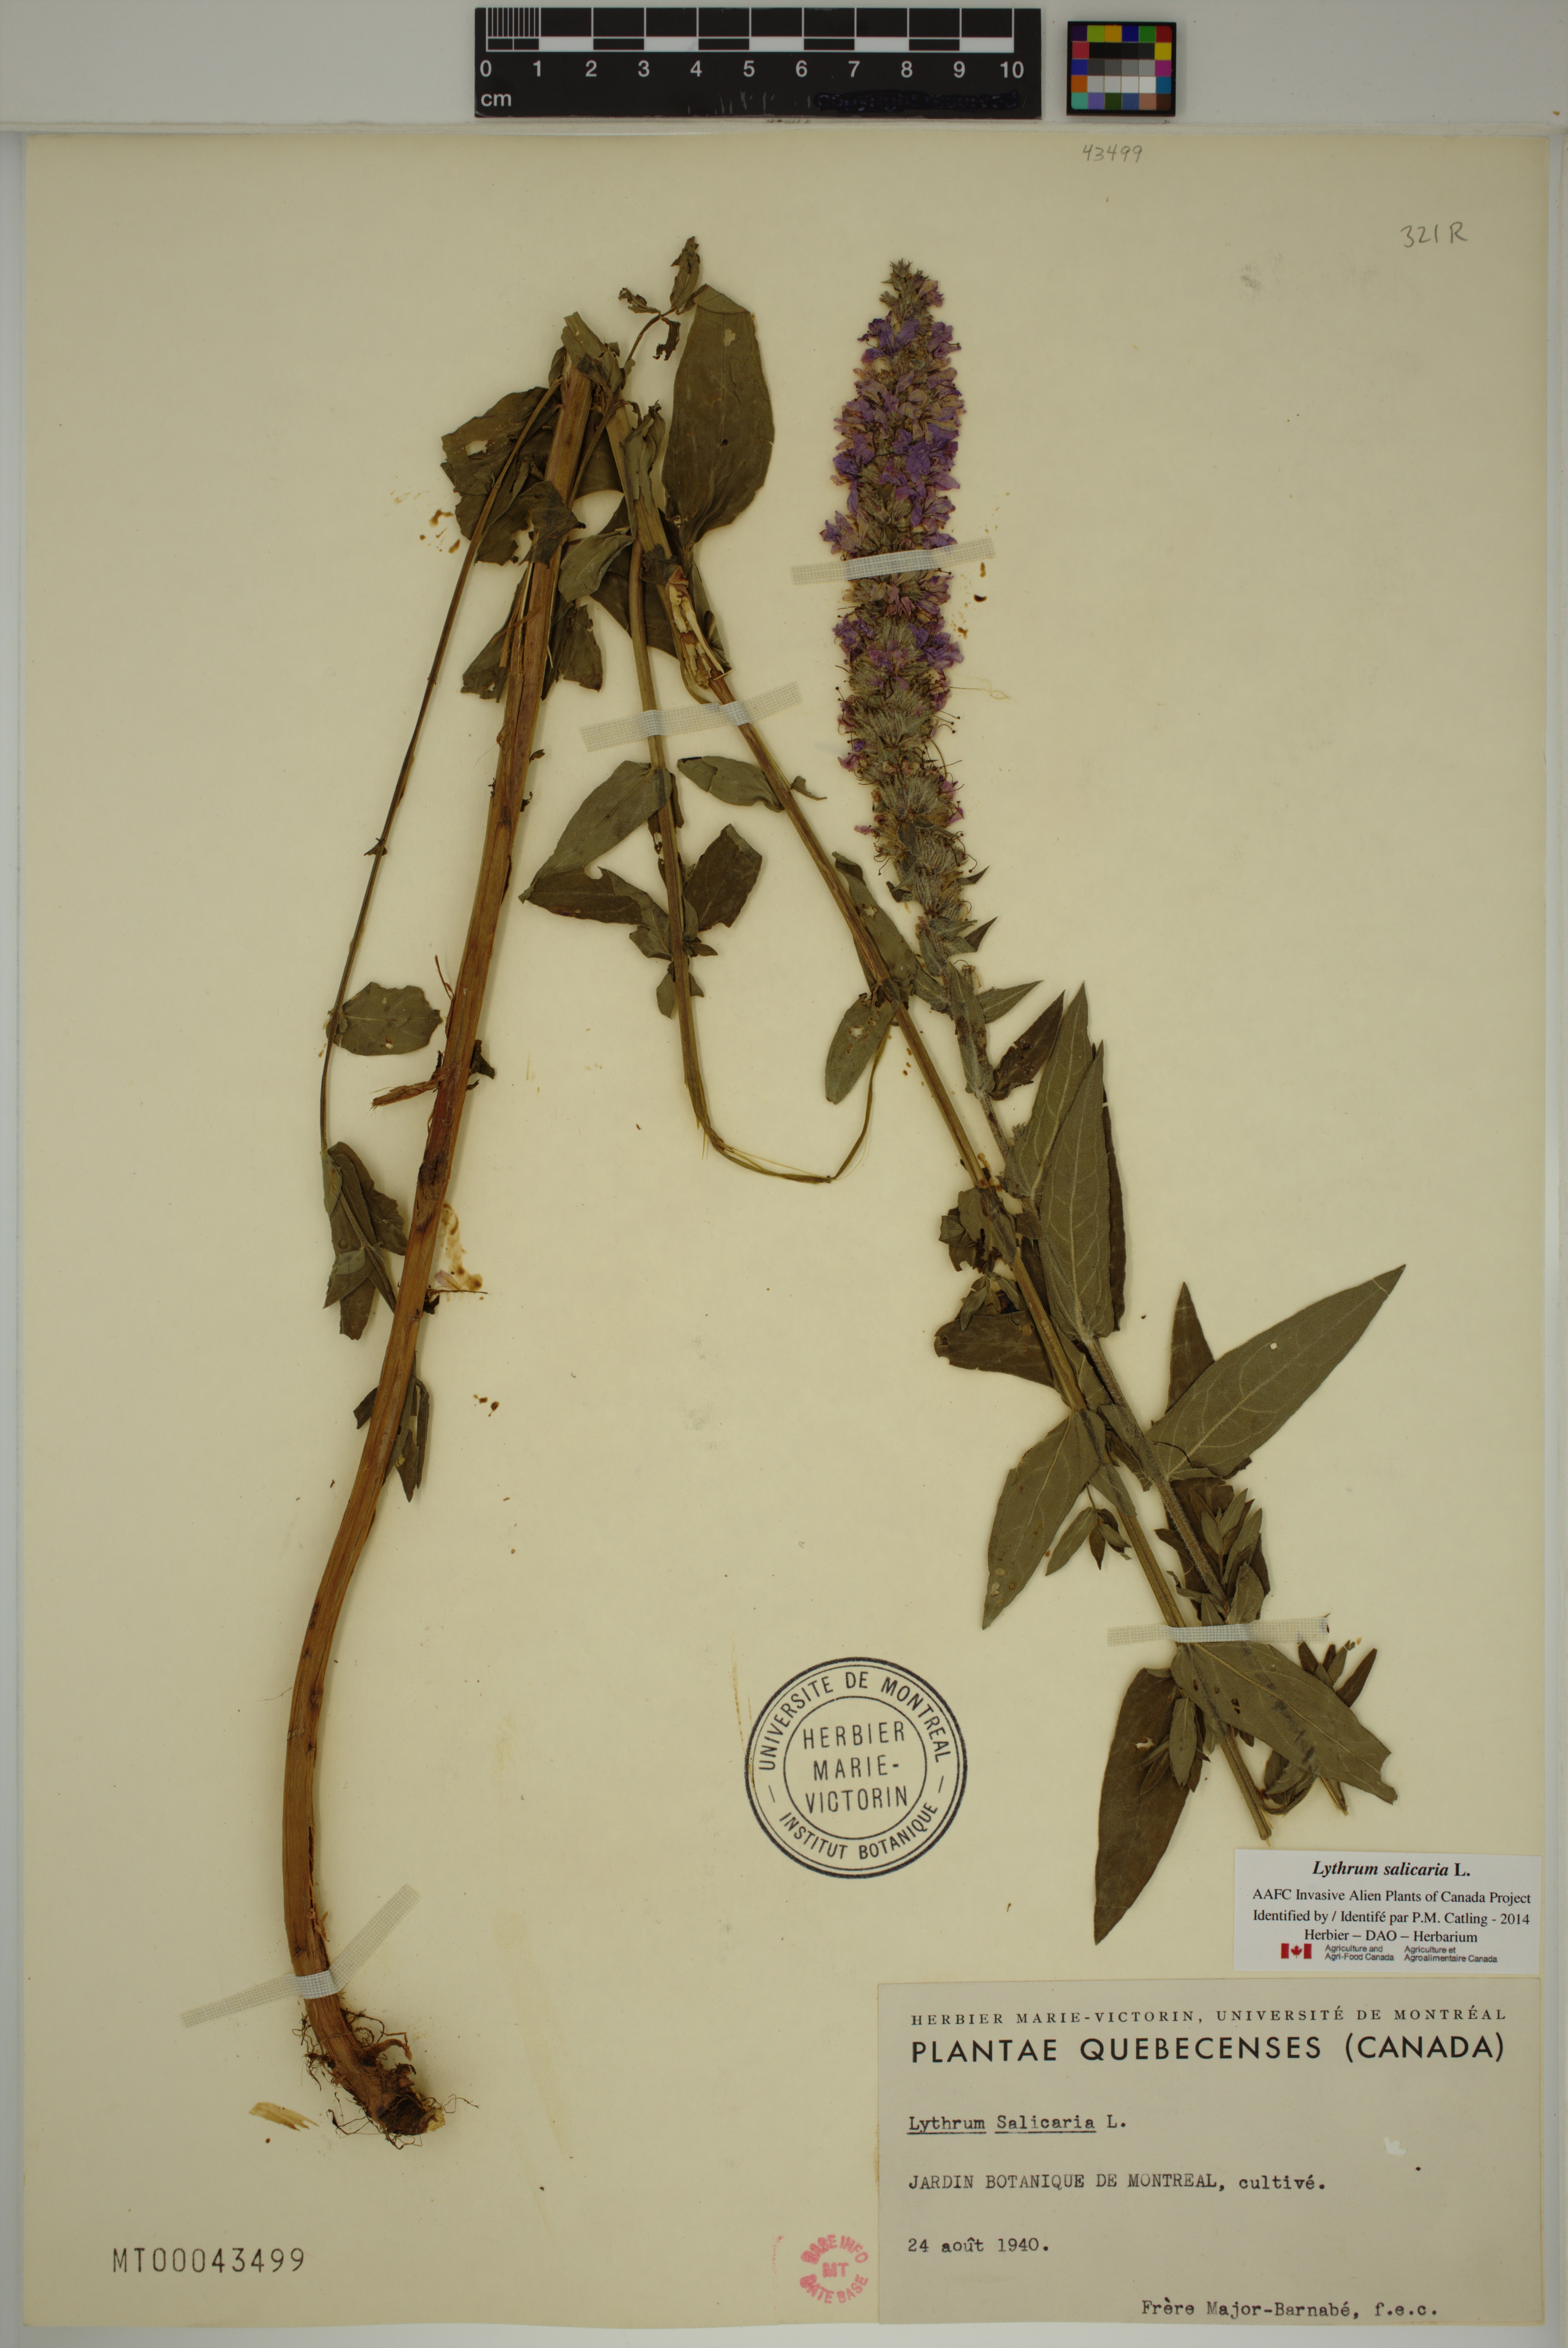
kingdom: Plantae
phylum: Tracheophyta
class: Magnoliopsida
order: Myrtales
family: Lythraceae
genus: Lythrum
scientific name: Lythrum salicaria
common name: Purple loosestrife
